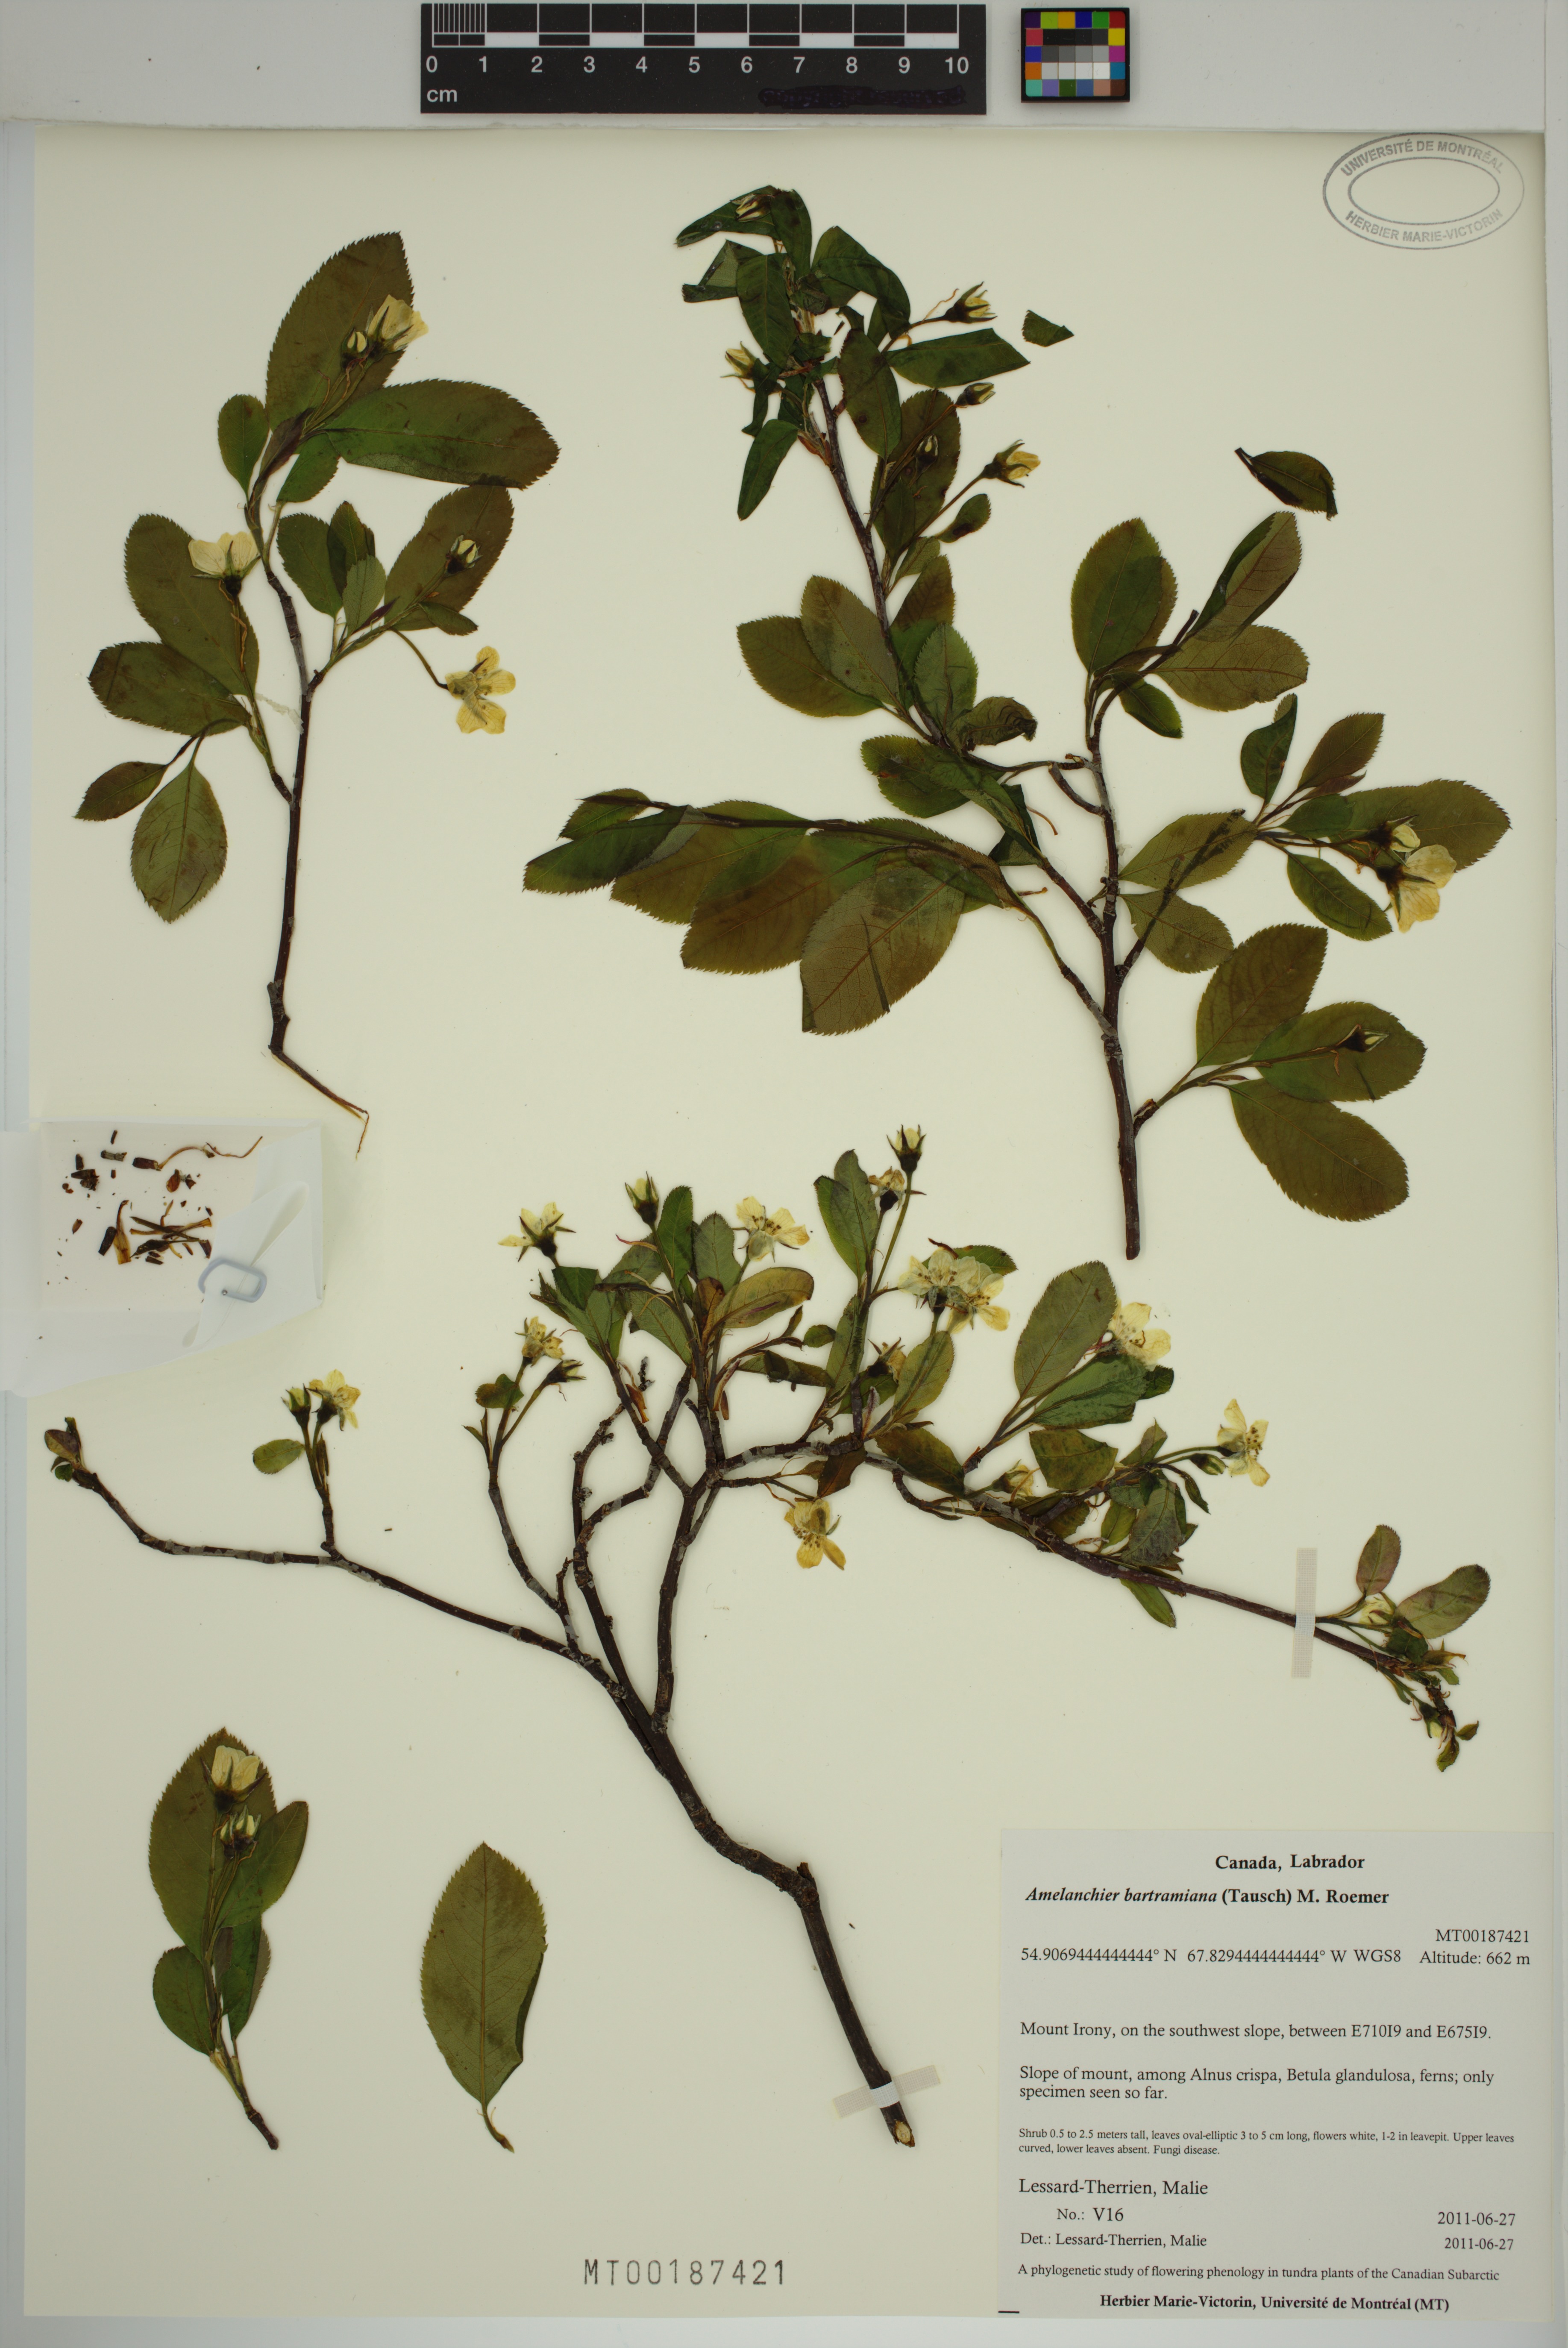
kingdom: Plantae
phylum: Tracheophyta
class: Magnoliopsida
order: Rosales
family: Rosaceae
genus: Amelanchier
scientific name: Amelanchier bartramiana
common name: Mountain serviceberry
